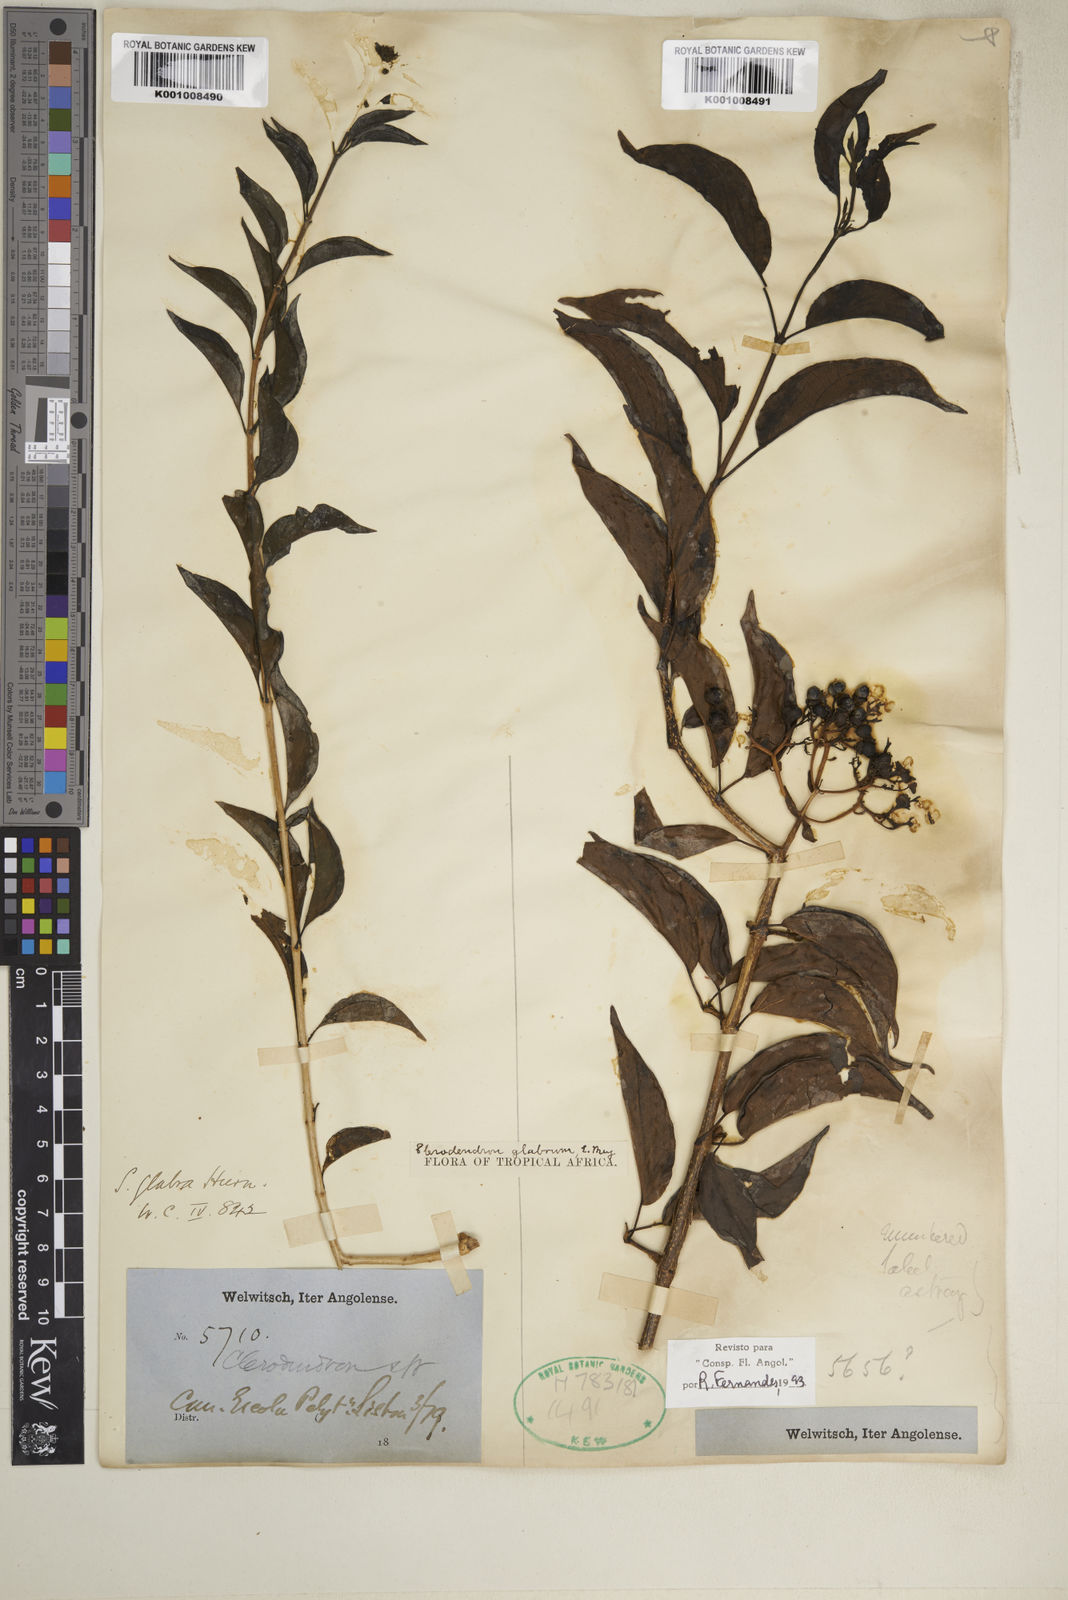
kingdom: Plantae
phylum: Tracheophyta
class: Magnoliopsida
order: Lamiales
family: Lamiaceae
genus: Volkameria
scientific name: Volkameria glabra
